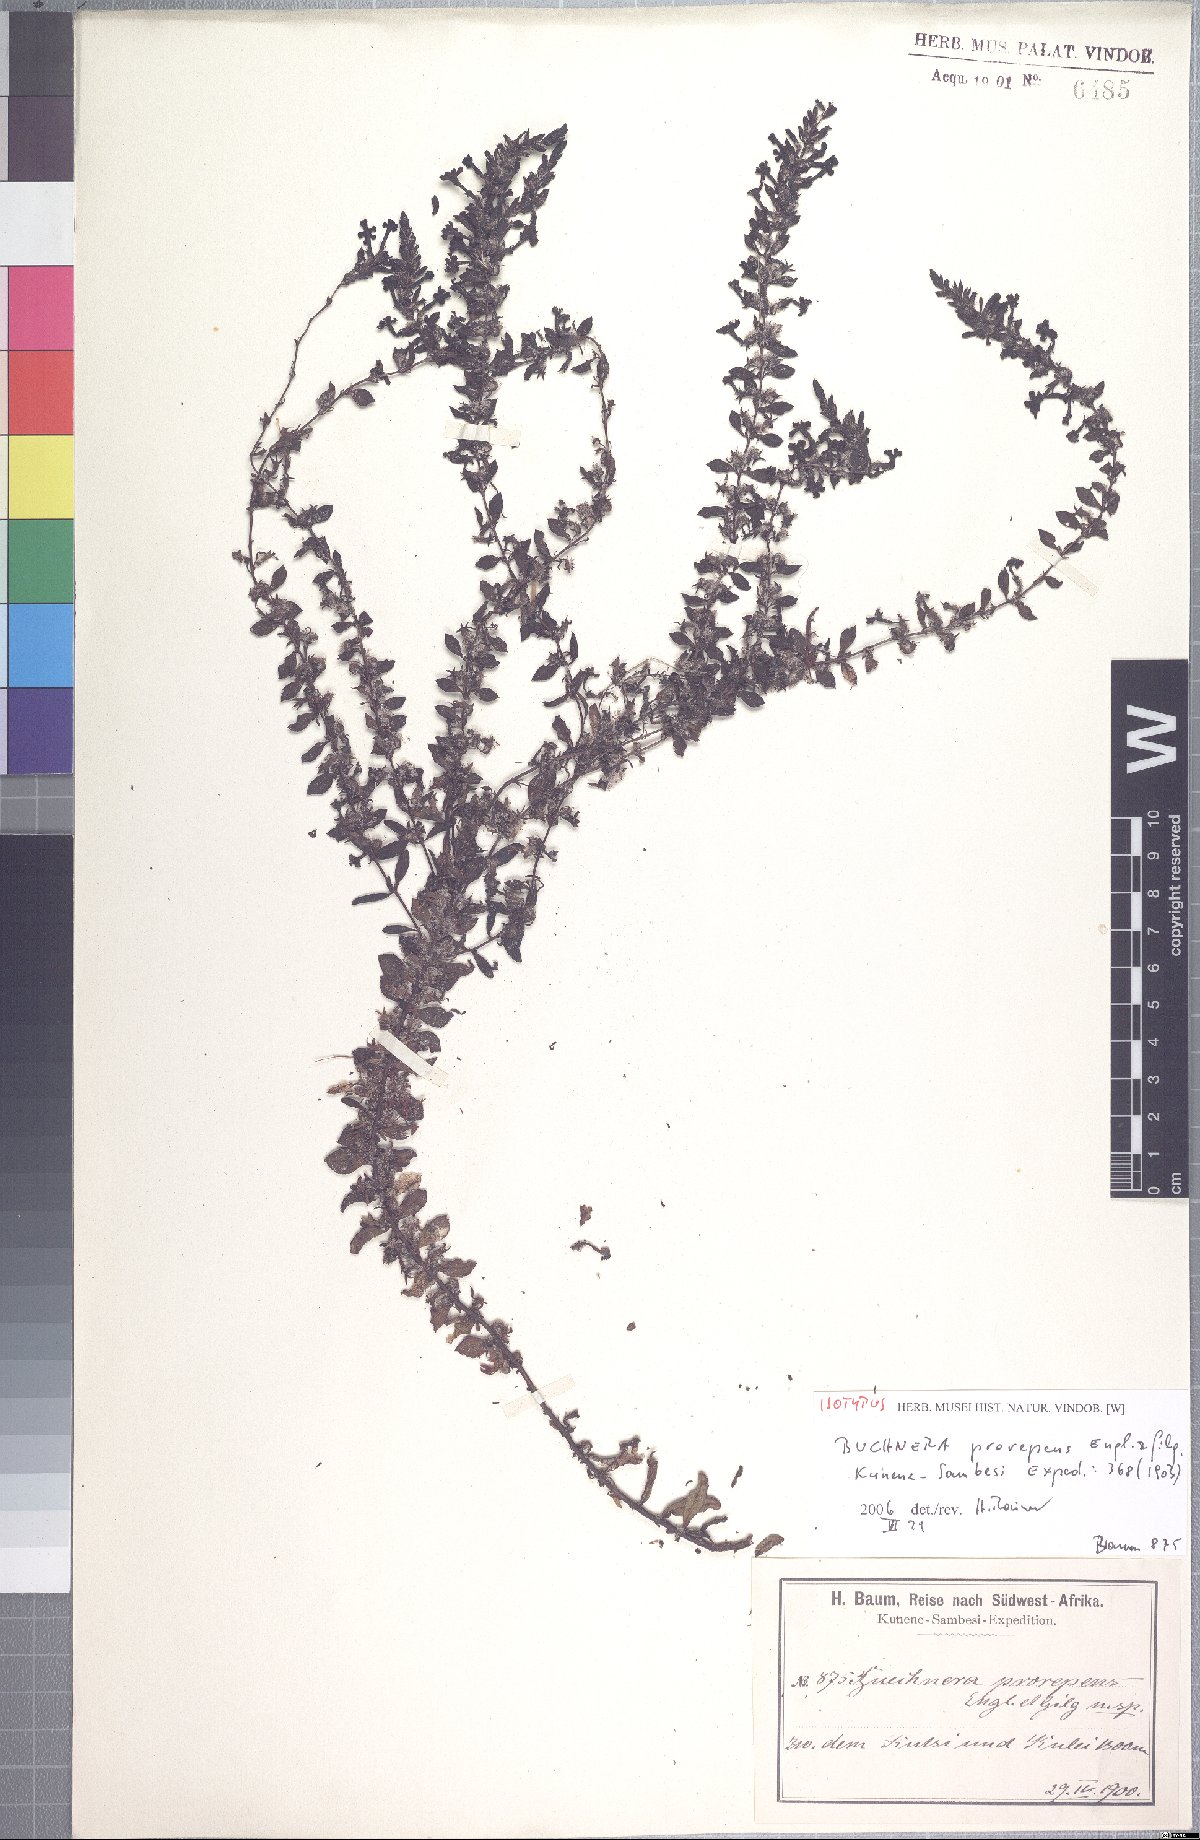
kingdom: Plantae
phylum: Tracheophyta
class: Magnoliopsida
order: Lamiales
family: Orobanchaceae
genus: Buchnera
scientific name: Buchnera prorepens
